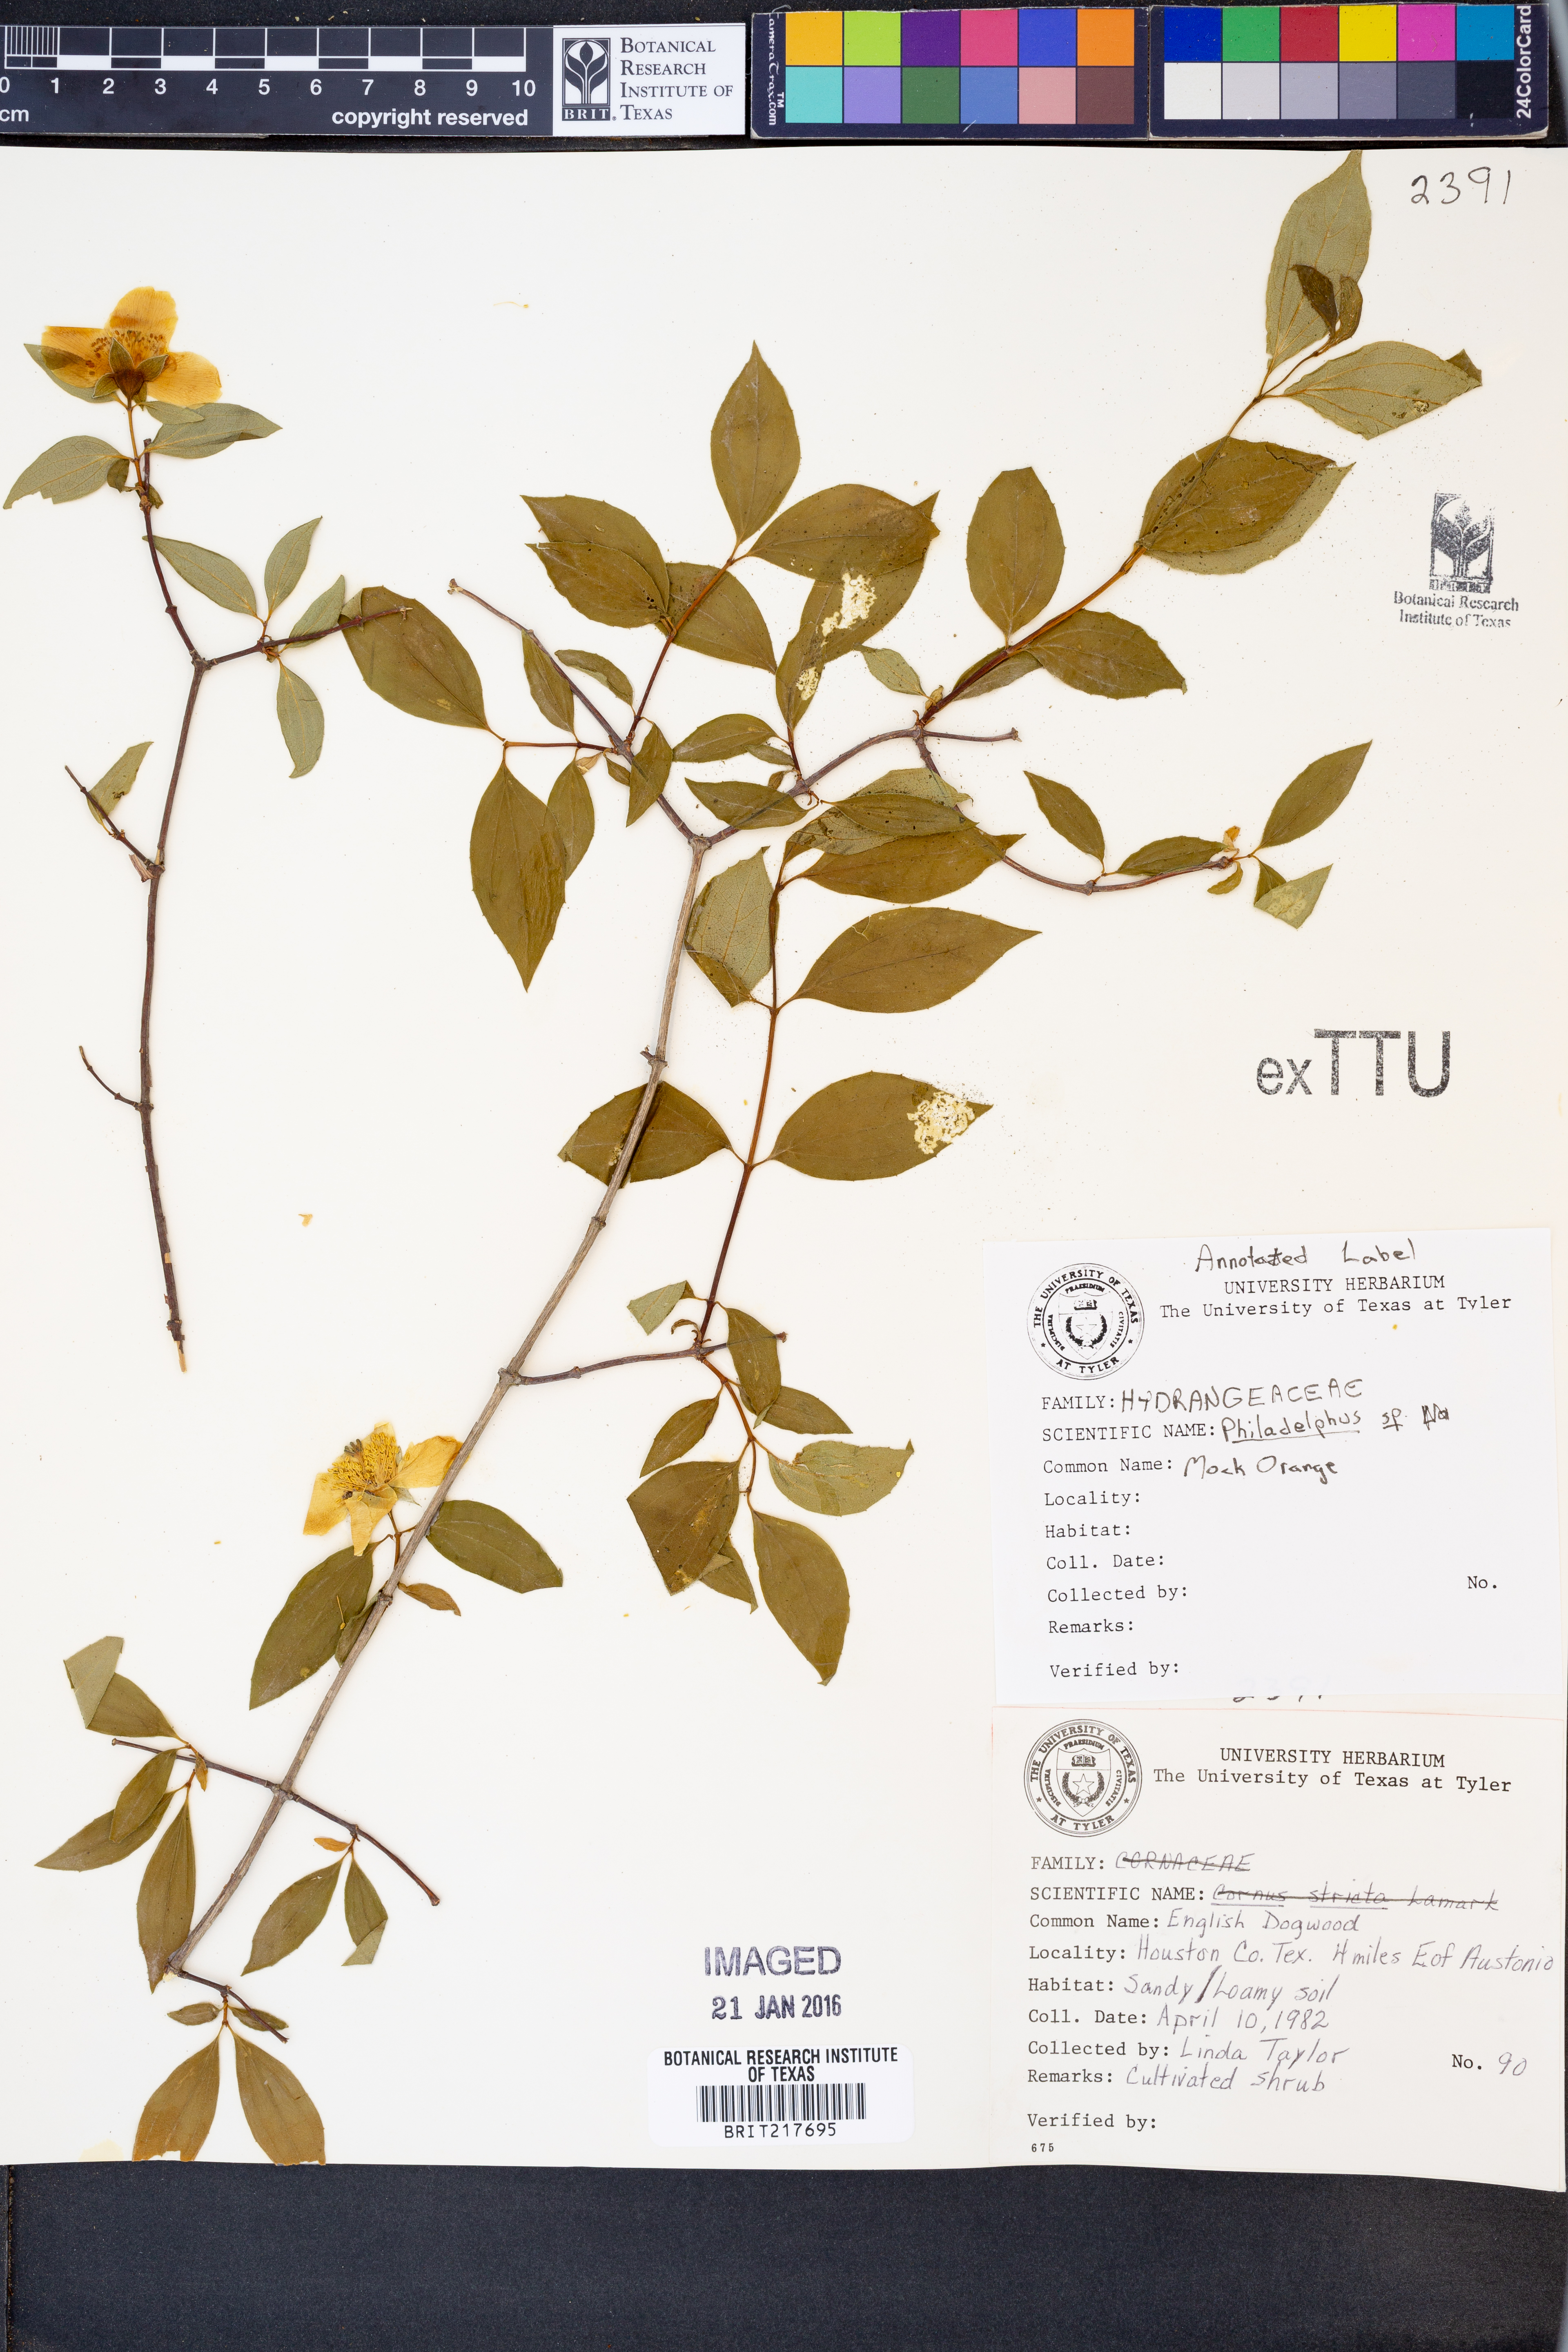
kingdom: Plantae
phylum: Tracheophyta
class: Magnoliopsida
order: Cornales
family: Hydrangeaceae
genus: Philadelphus
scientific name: Philadelphus
